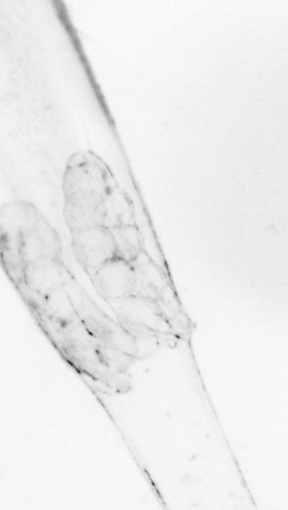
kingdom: Animalia
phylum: Chaetognatha
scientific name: Chaetognatha
